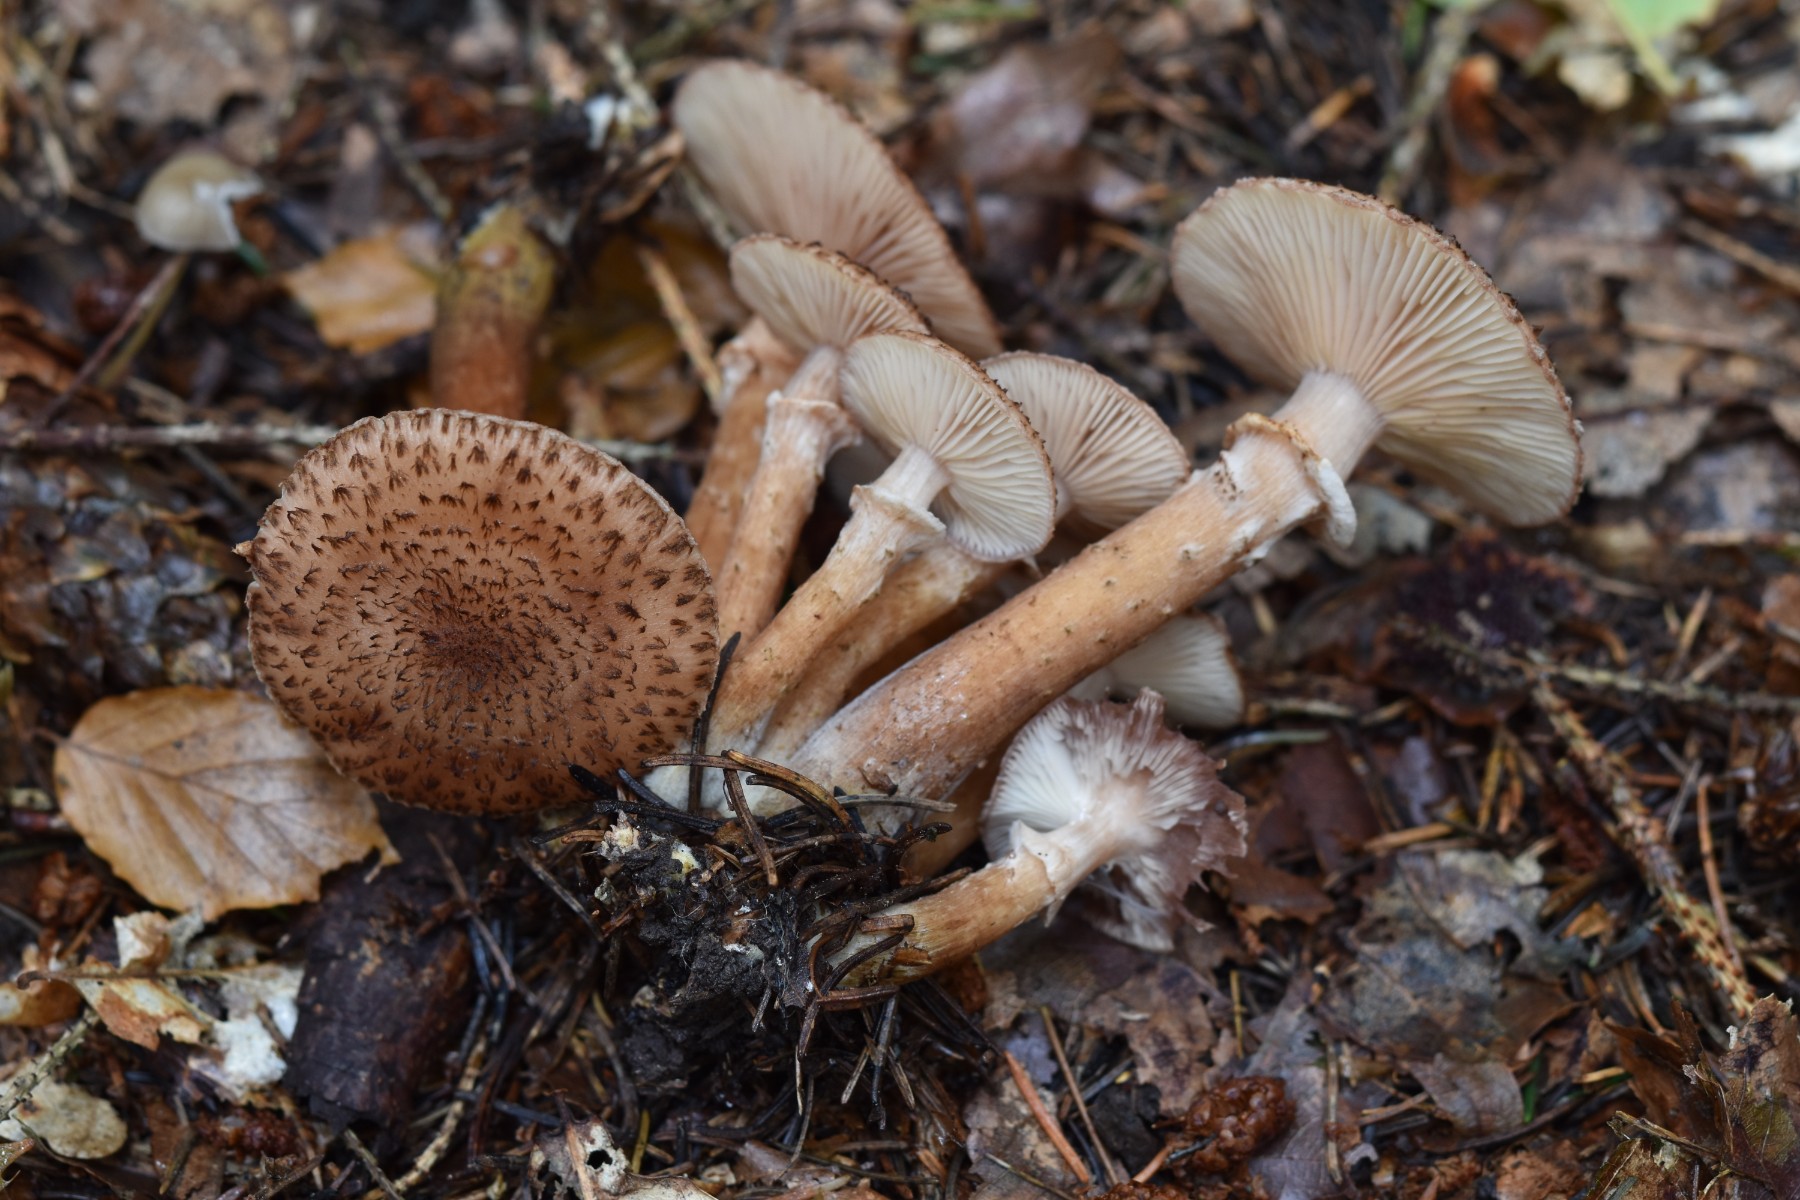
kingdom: Fungi
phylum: Basidiomycota
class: Agaricomycetes
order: Agaricales
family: Physalacriaceae
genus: Armillaria
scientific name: Armillaria ostoyae
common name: mørk honningsvamp
